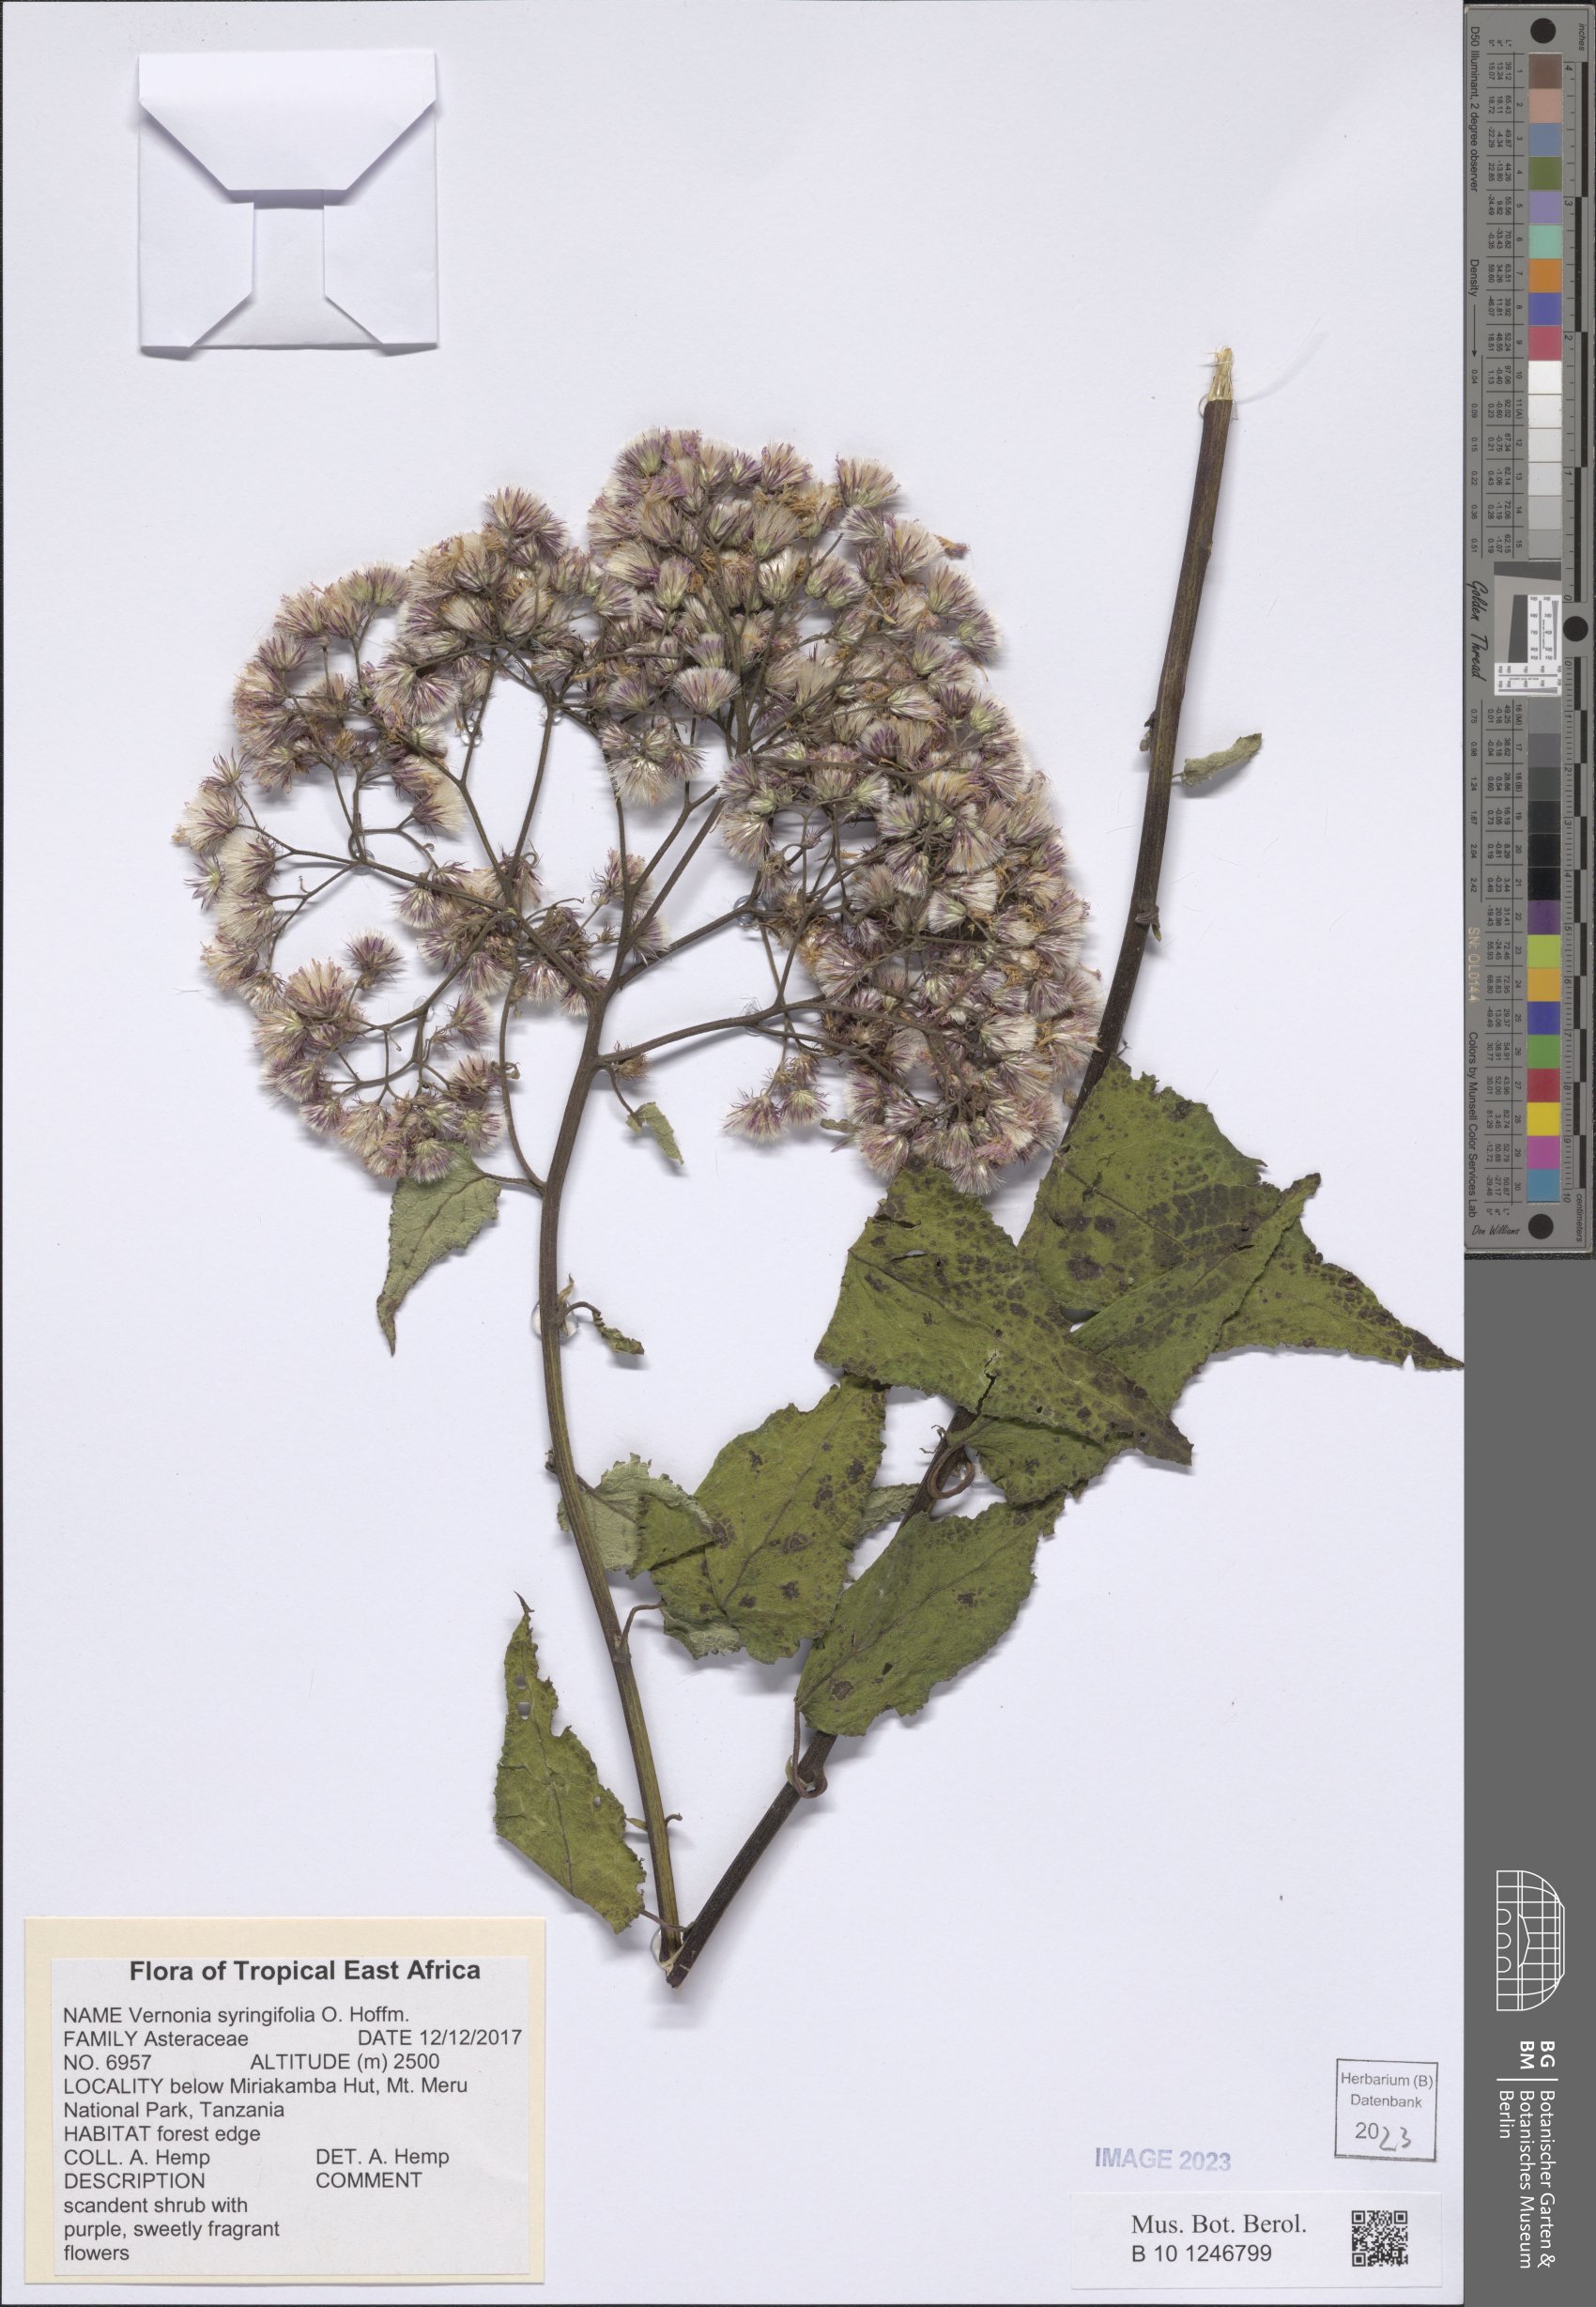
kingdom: Plantae
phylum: Tracheophyta
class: Magnoliopsida
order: Asterales
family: Asteraceae
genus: Vernonia
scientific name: Vernonia syringifolia
